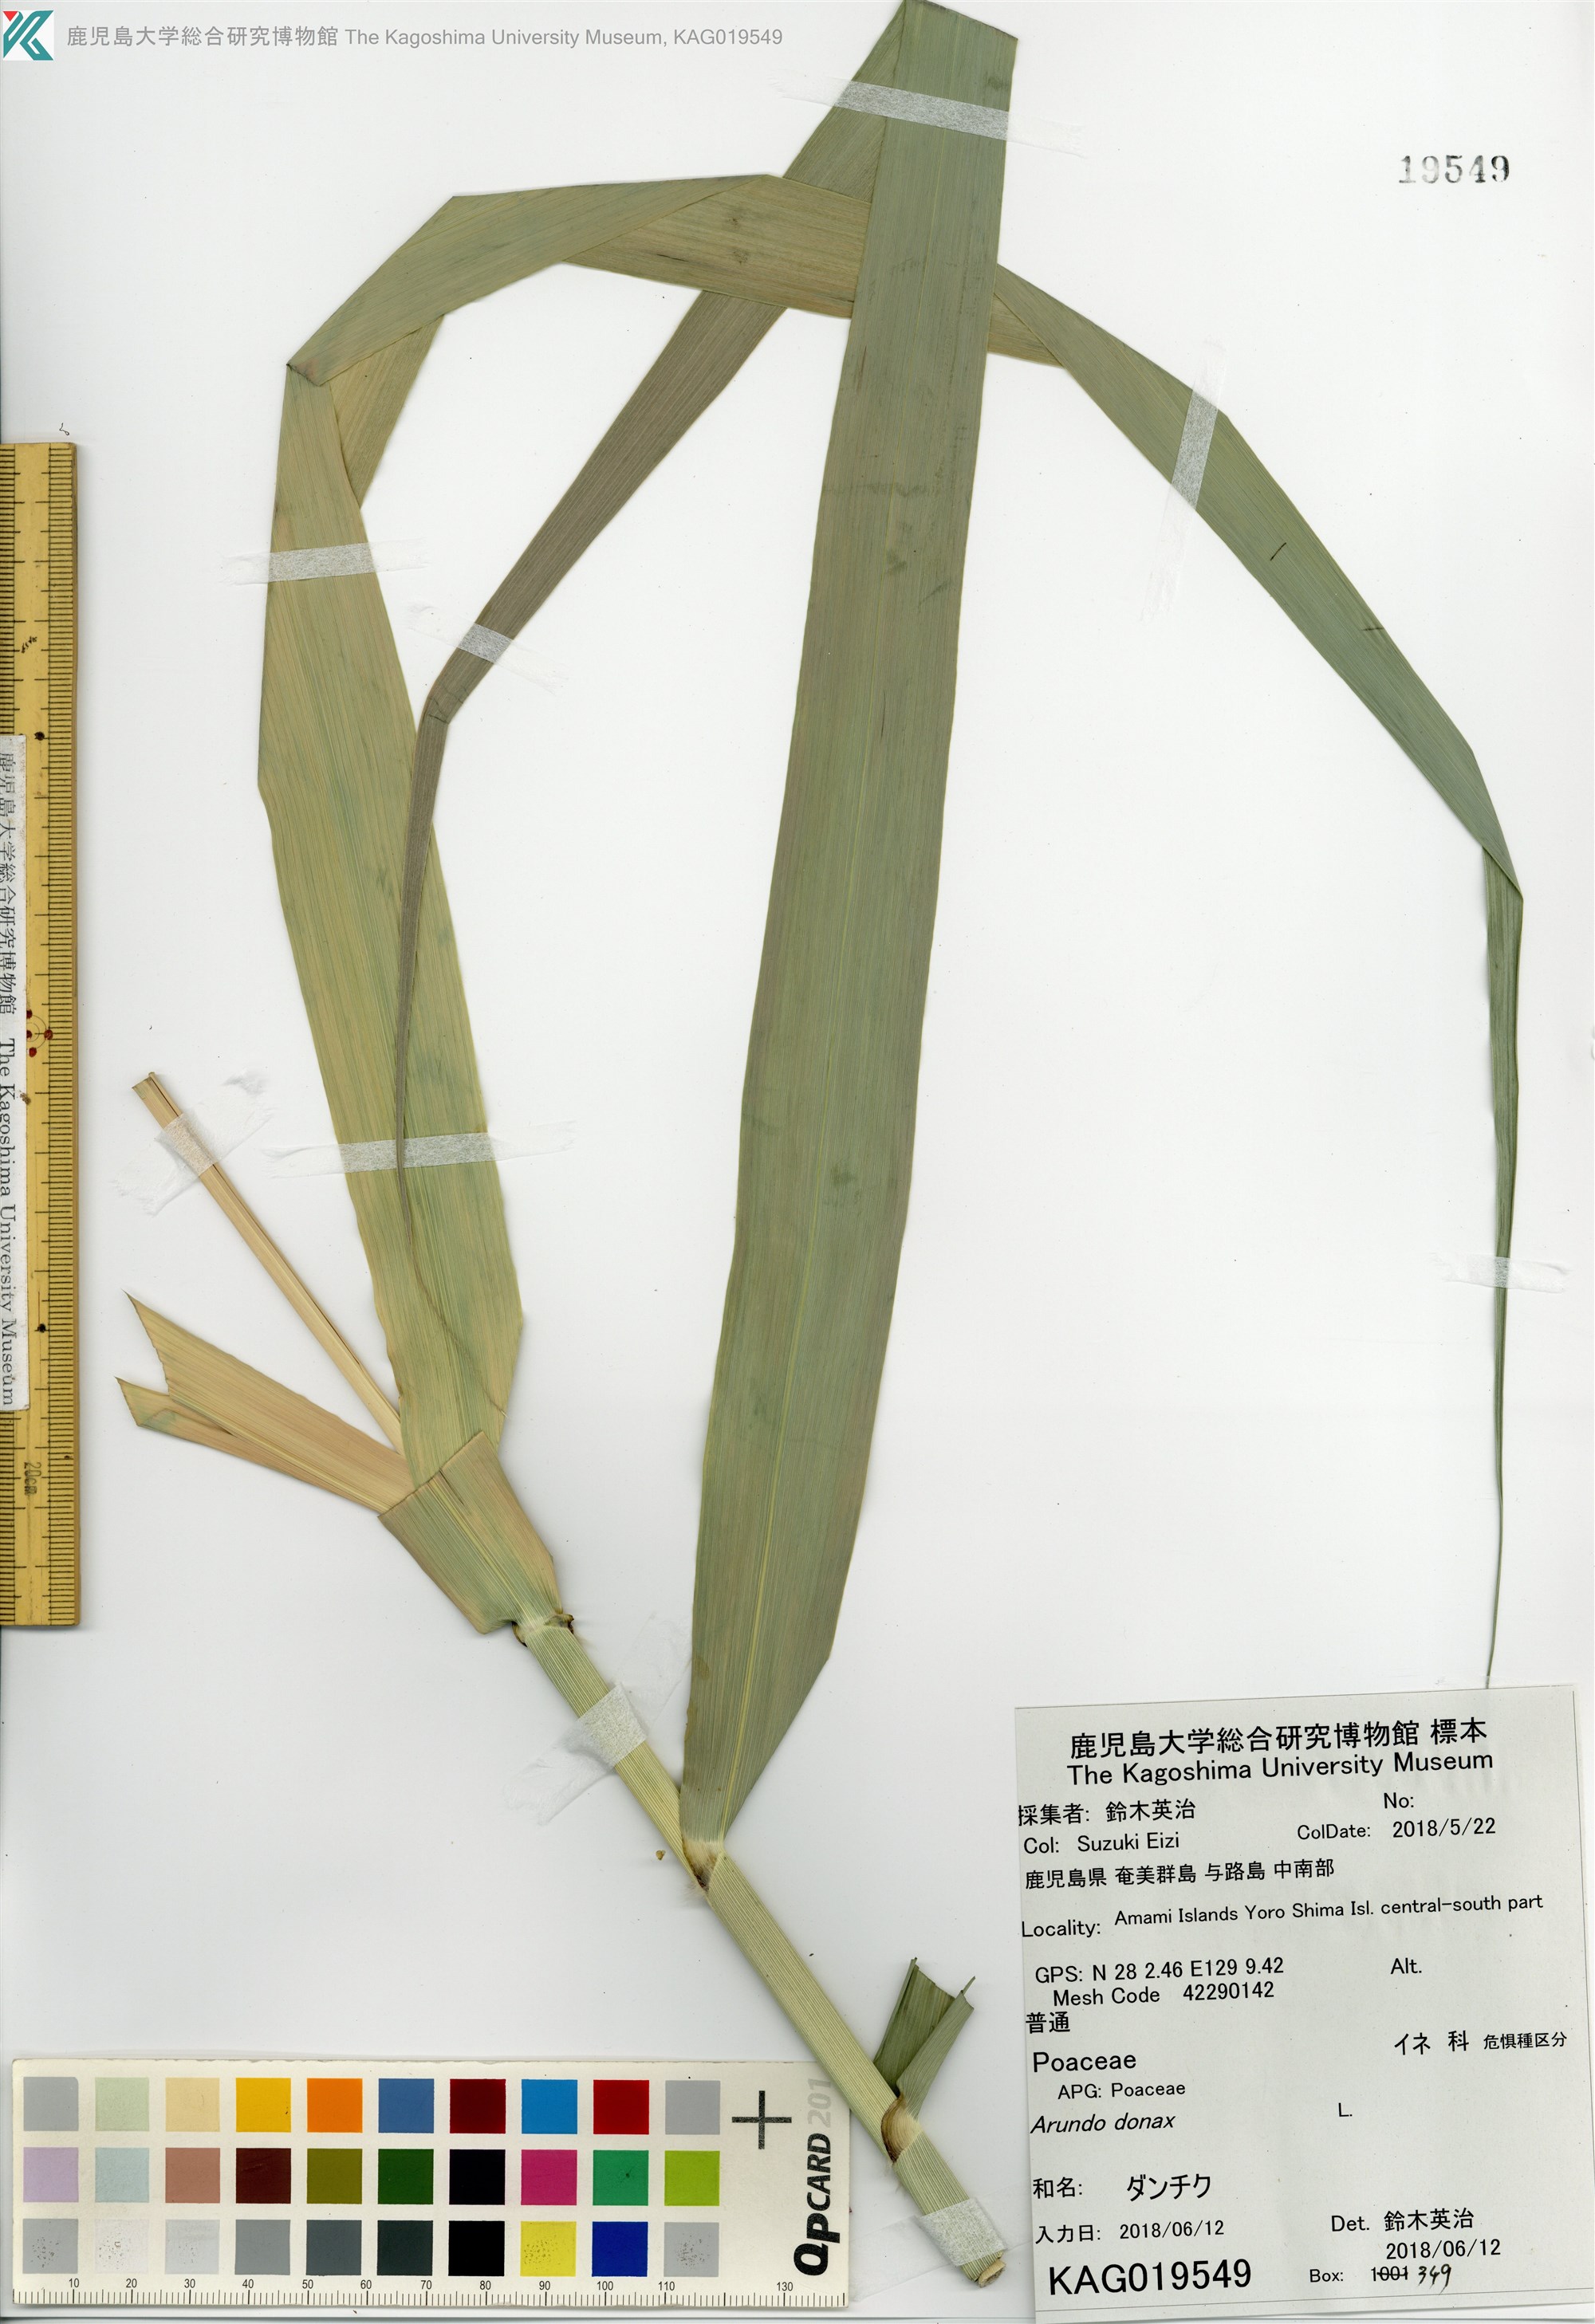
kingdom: Plantae
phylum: Tracheophyta
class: Liliopsida
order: Poales
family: Poaceae
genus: Arundo
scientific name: Arundo donax
